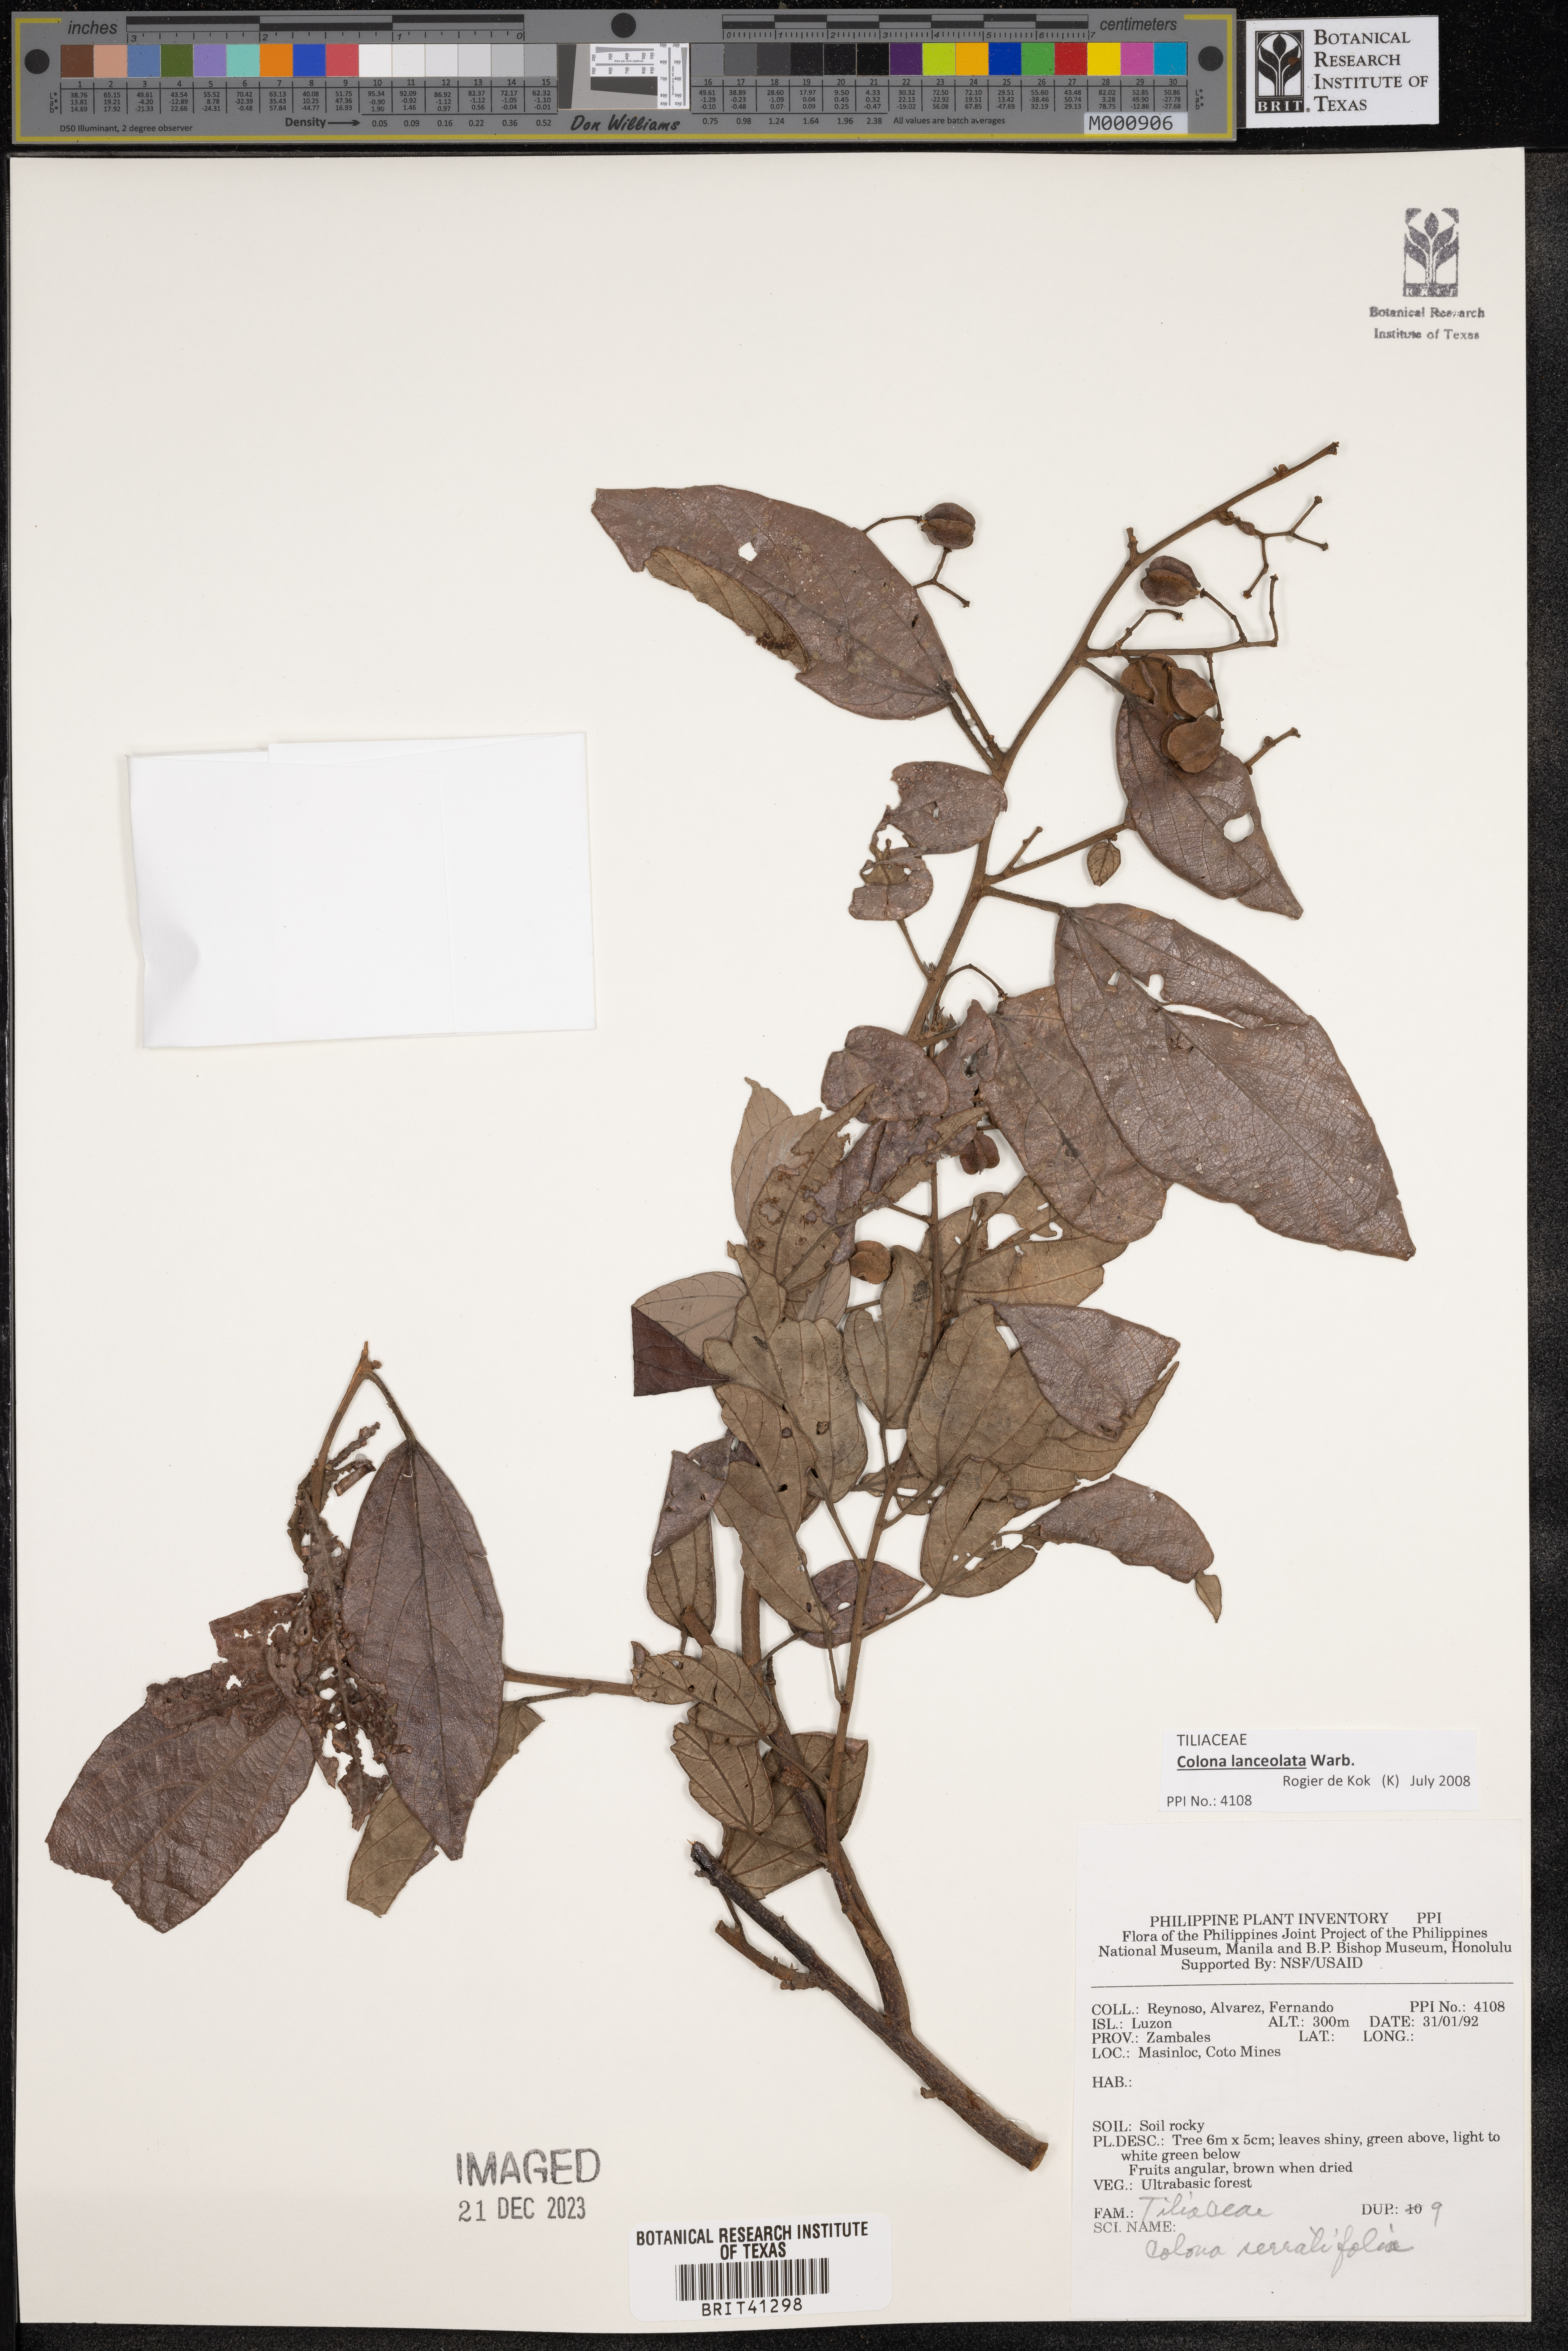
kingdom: Plantae
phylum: Tracheophyta
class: Magnoliopsida
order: Malvales
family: Malvaceae
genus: Colona
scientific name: Colona serratifolia
